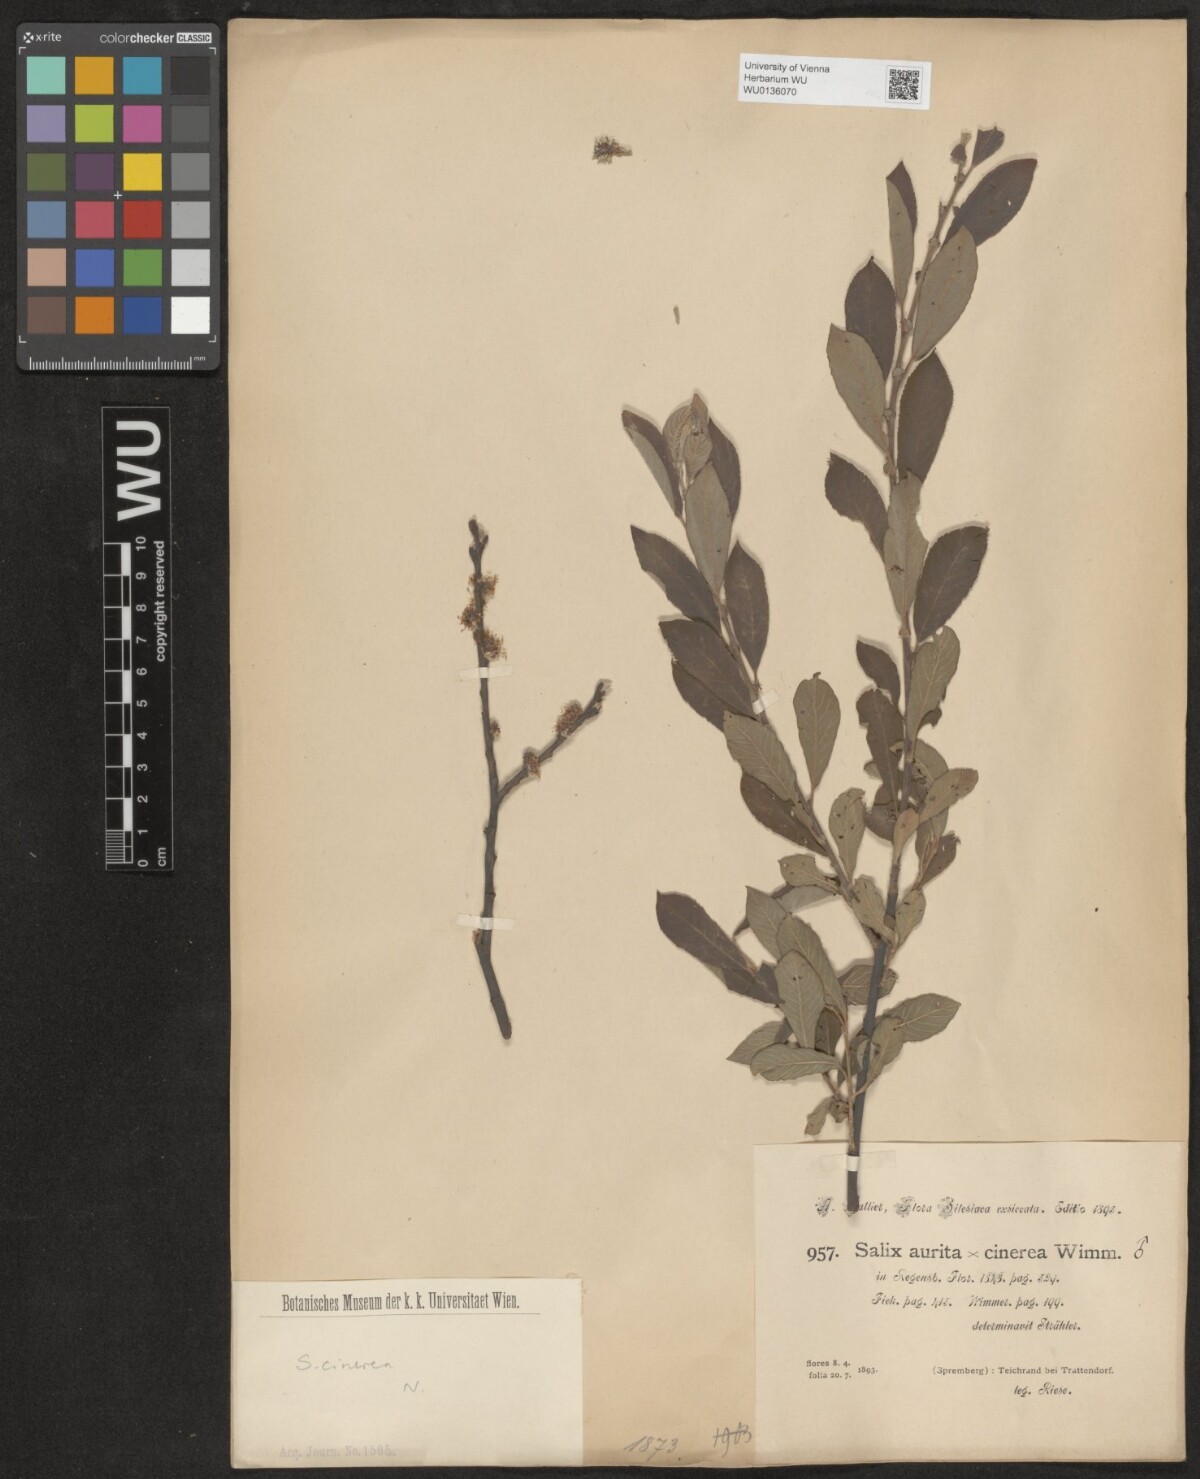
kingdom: Plantae
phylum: Tracheophyta
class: Magnoliopsida
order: Malpighiales
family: Salicaceae
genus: Salix
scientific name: Salix cinerea
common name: Common sallow
